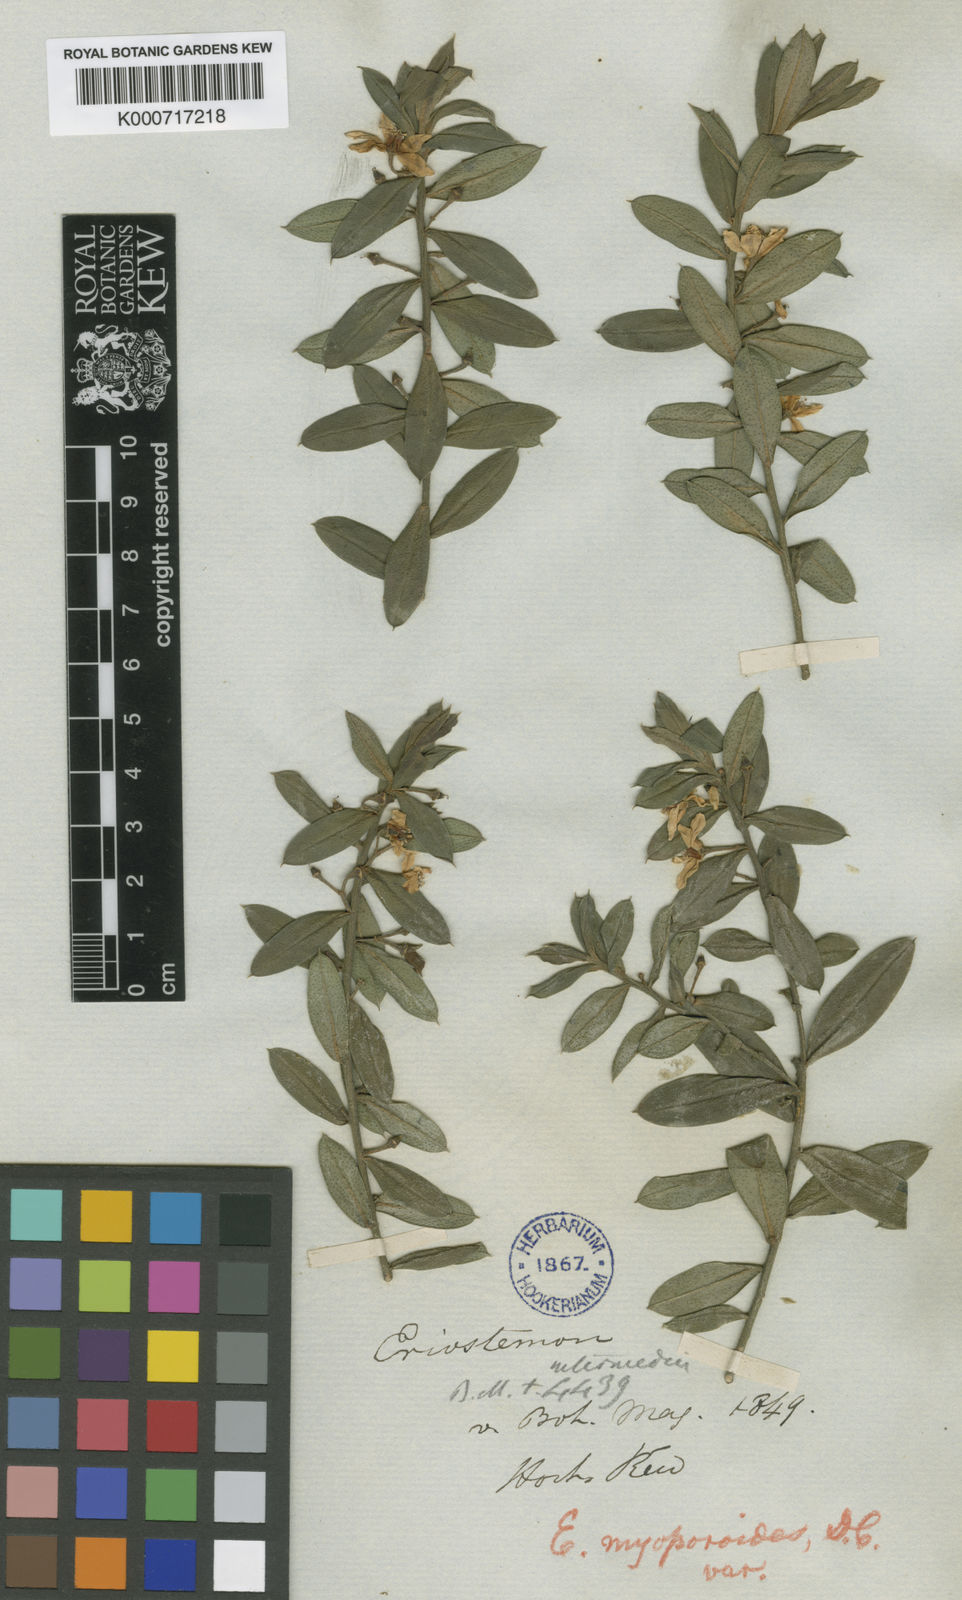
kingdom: Plantae
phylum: Tracheophyta
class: Magnoliopsida
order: Sapindales
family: Rutaceae
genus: Eriostemon
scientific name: Eriostemon intermedius
